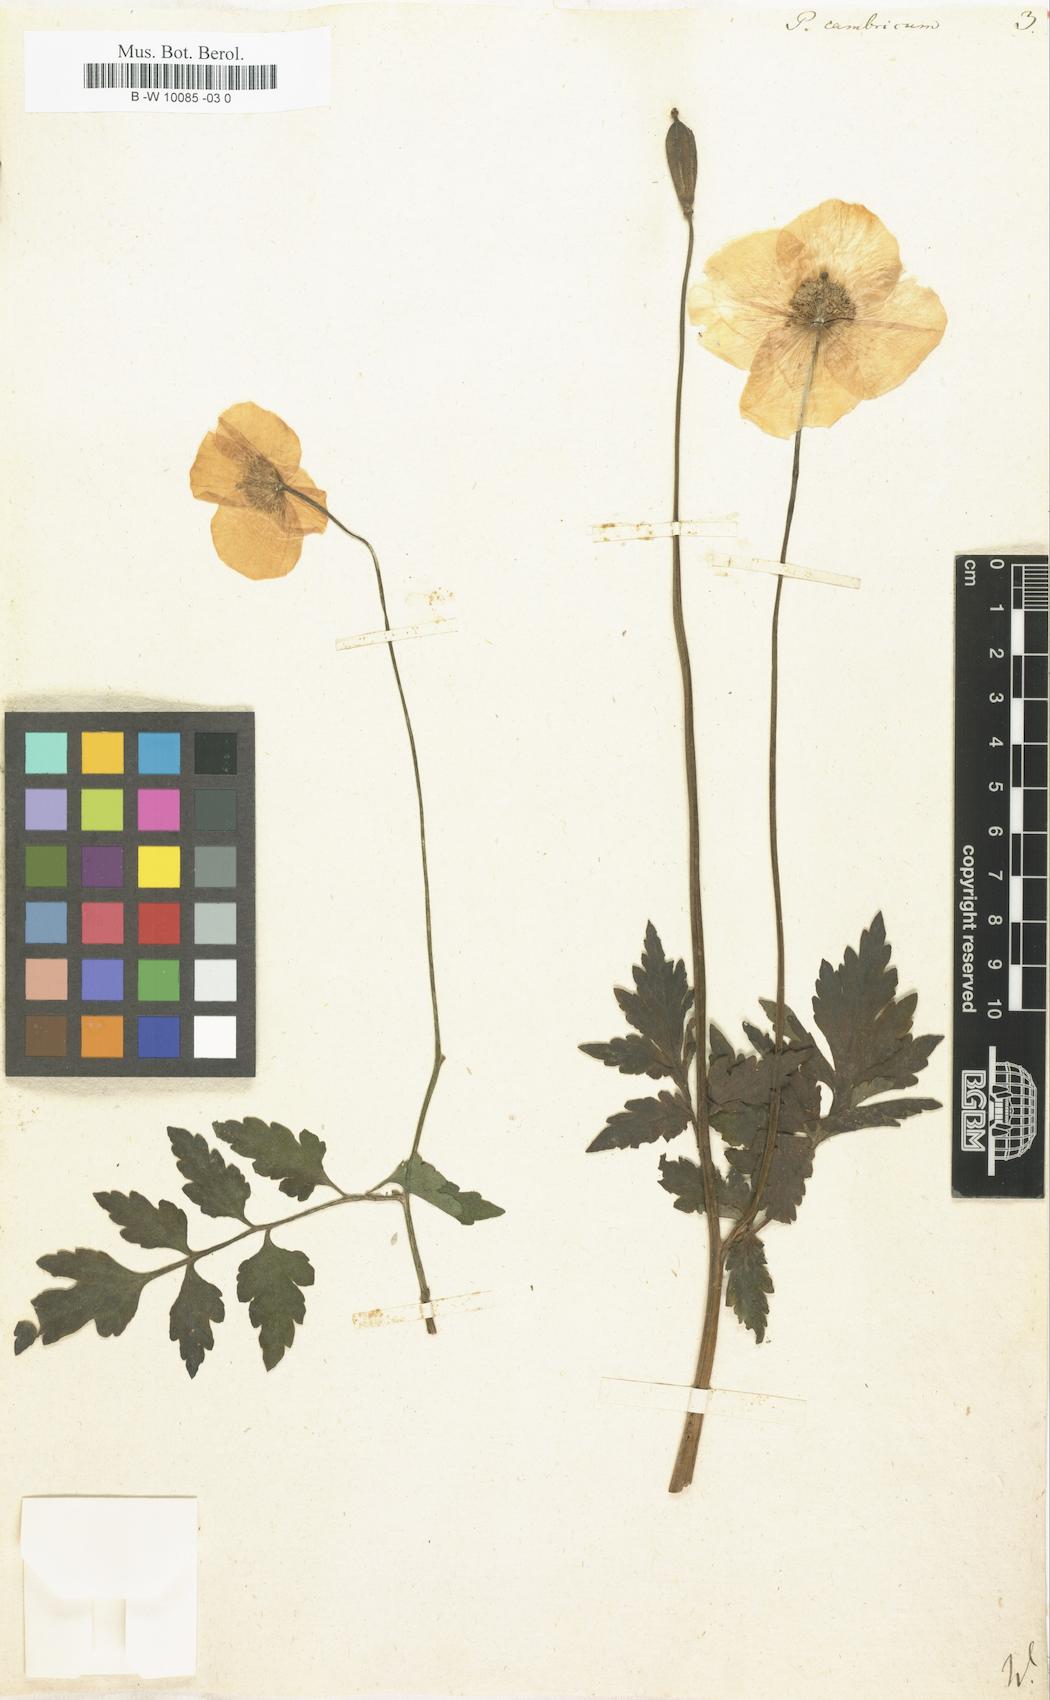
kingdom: Plantae
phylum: Tracheophyta
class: Magnoliopsida
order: Ranunculales
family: Papaveraceae
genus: Papaver
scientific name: Papaver cambricum
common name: Poppy
